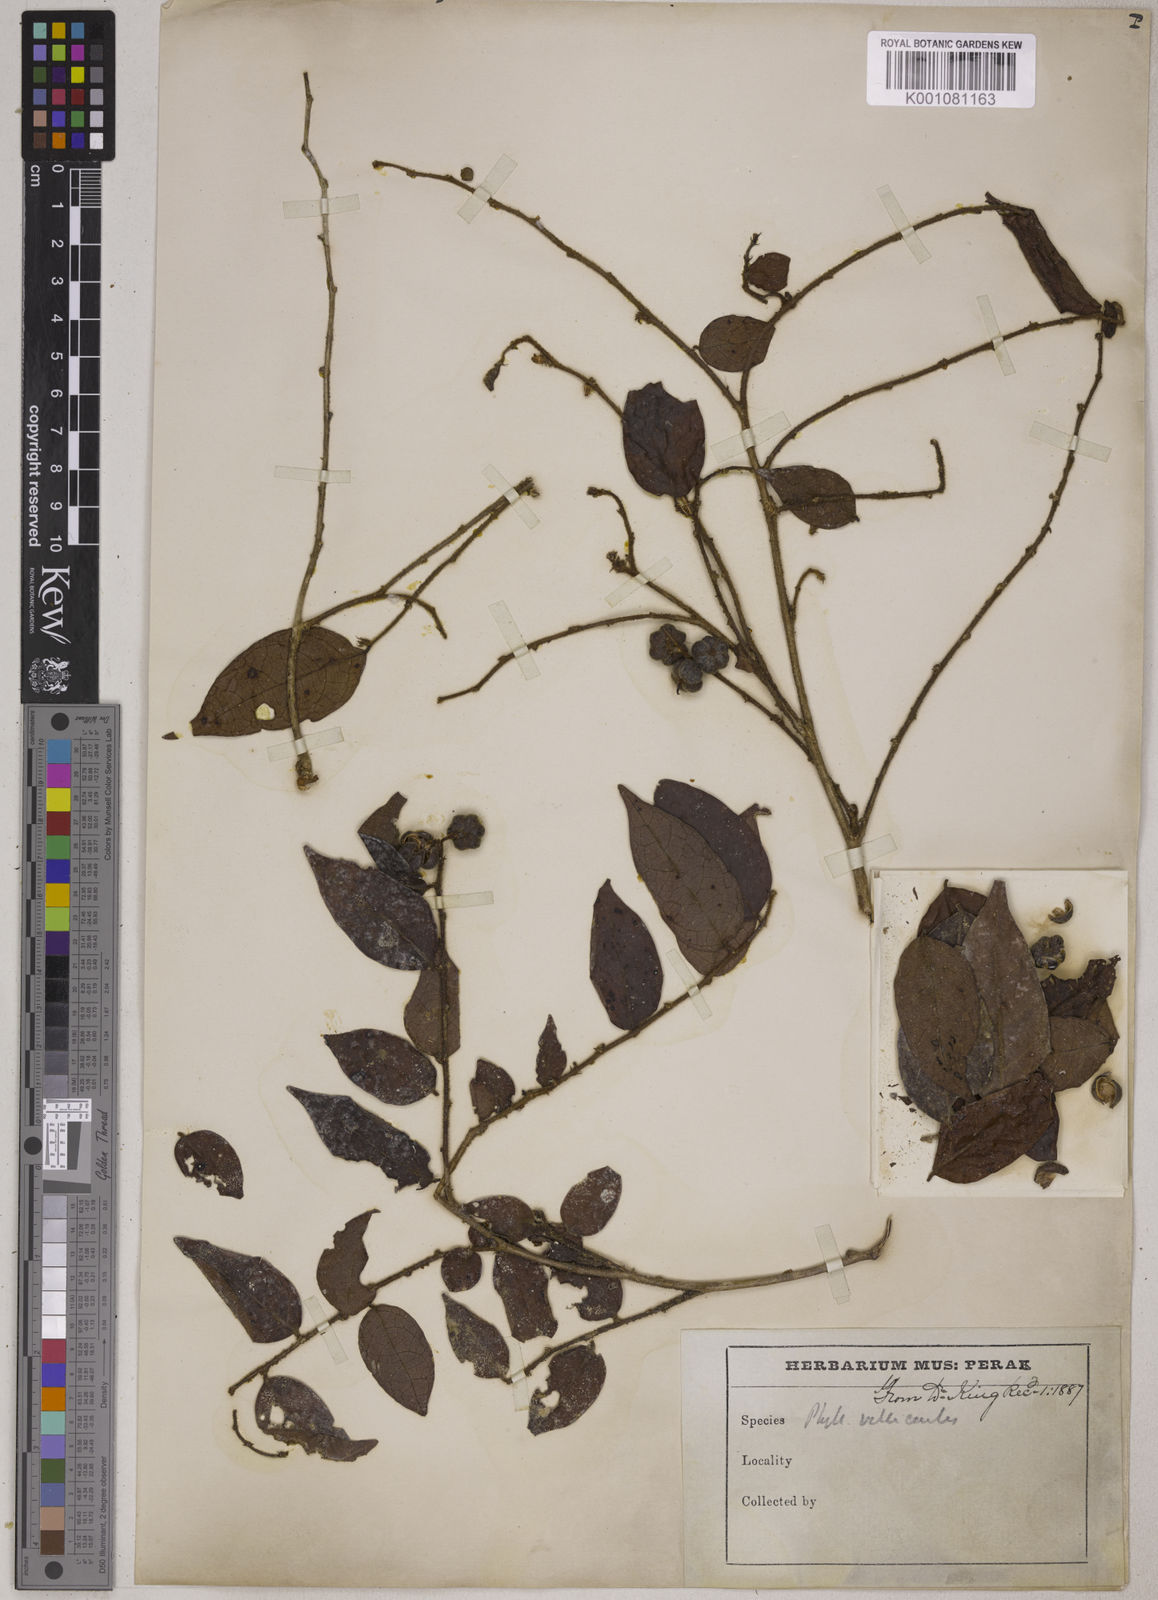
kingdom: Plantae
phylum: Tracheophyta
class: Magnoliopsida
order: Malpighiales
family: Phyllanthaceae
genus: Glochidion
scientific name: Glochidion rubrum
